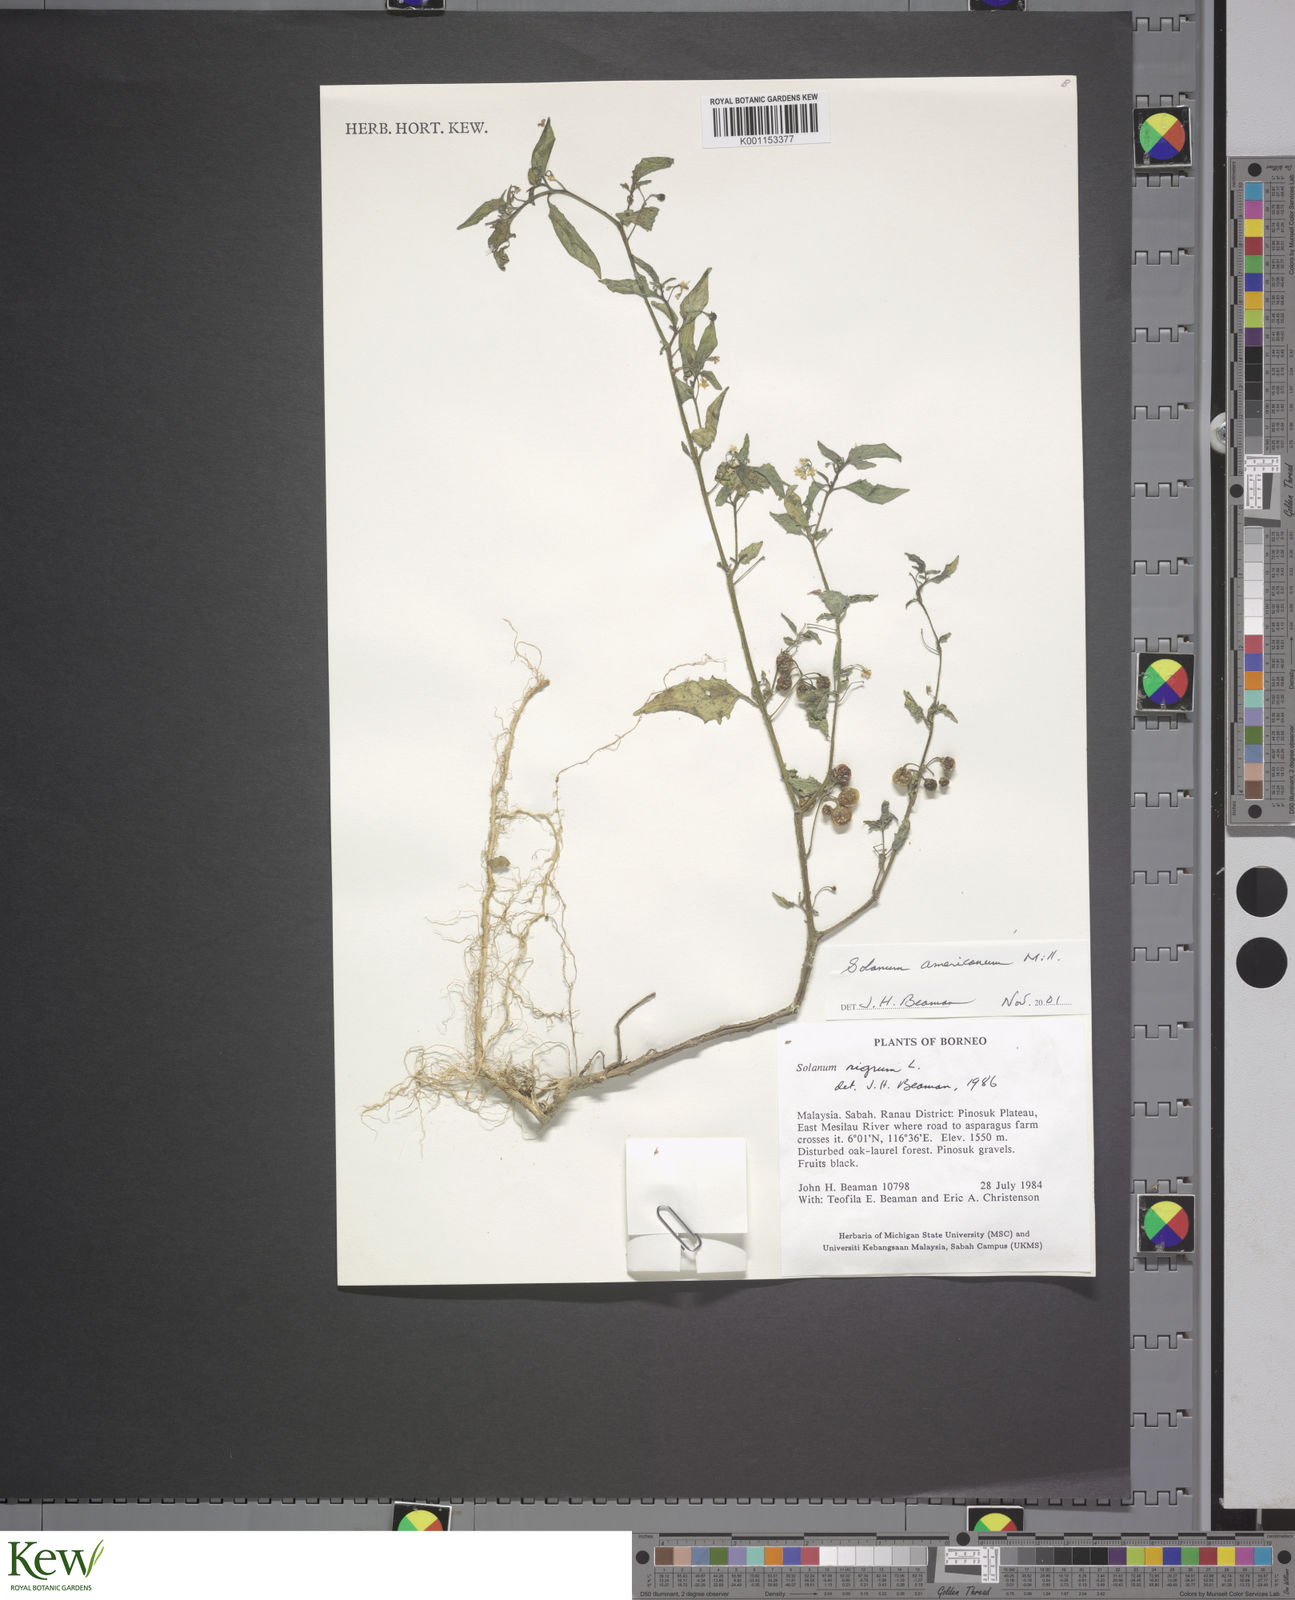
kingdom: Plantae
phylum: Tracheophyta
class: Magnoliopsida
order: Solanales
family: Solanaceae
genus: Solanum
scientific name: Solanum americanum
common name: American black nightshade
